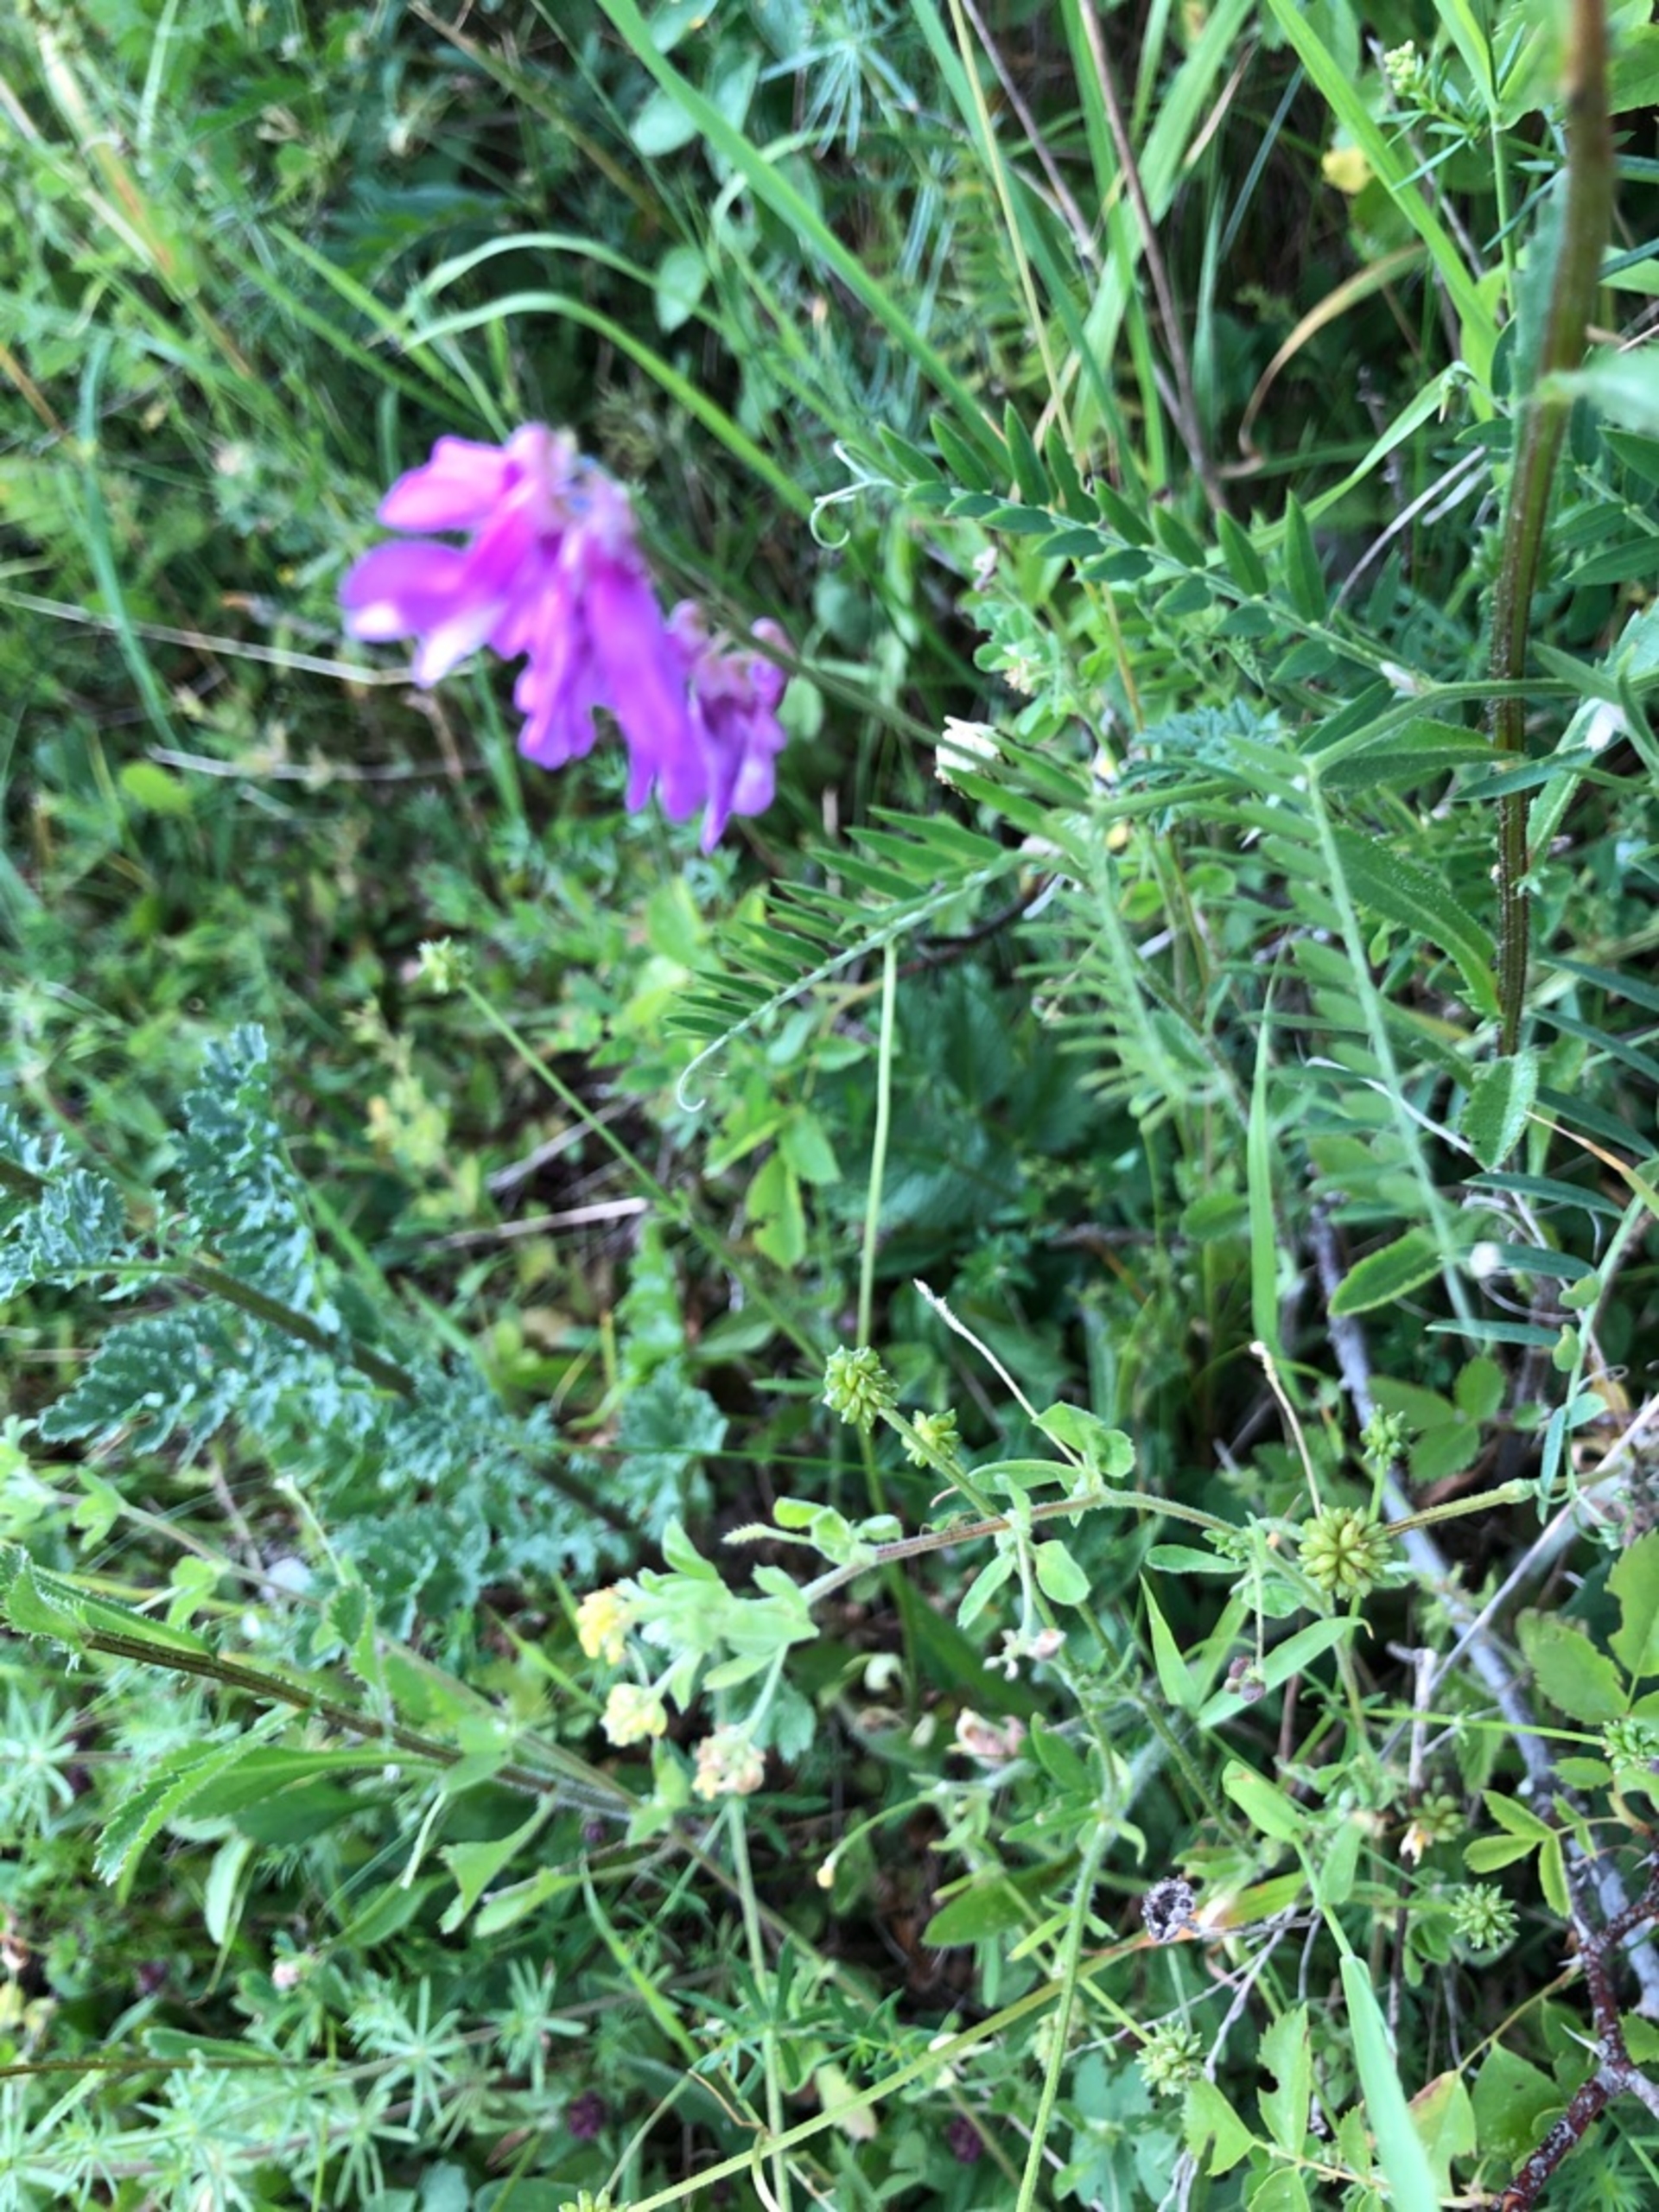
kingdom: Plantae
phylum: Tracheophyta
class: Magnoliopsida
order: Fabales
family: Fabaceae
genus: Vicia
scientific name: Vicia tenuifolia
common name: Langklaset vikke
